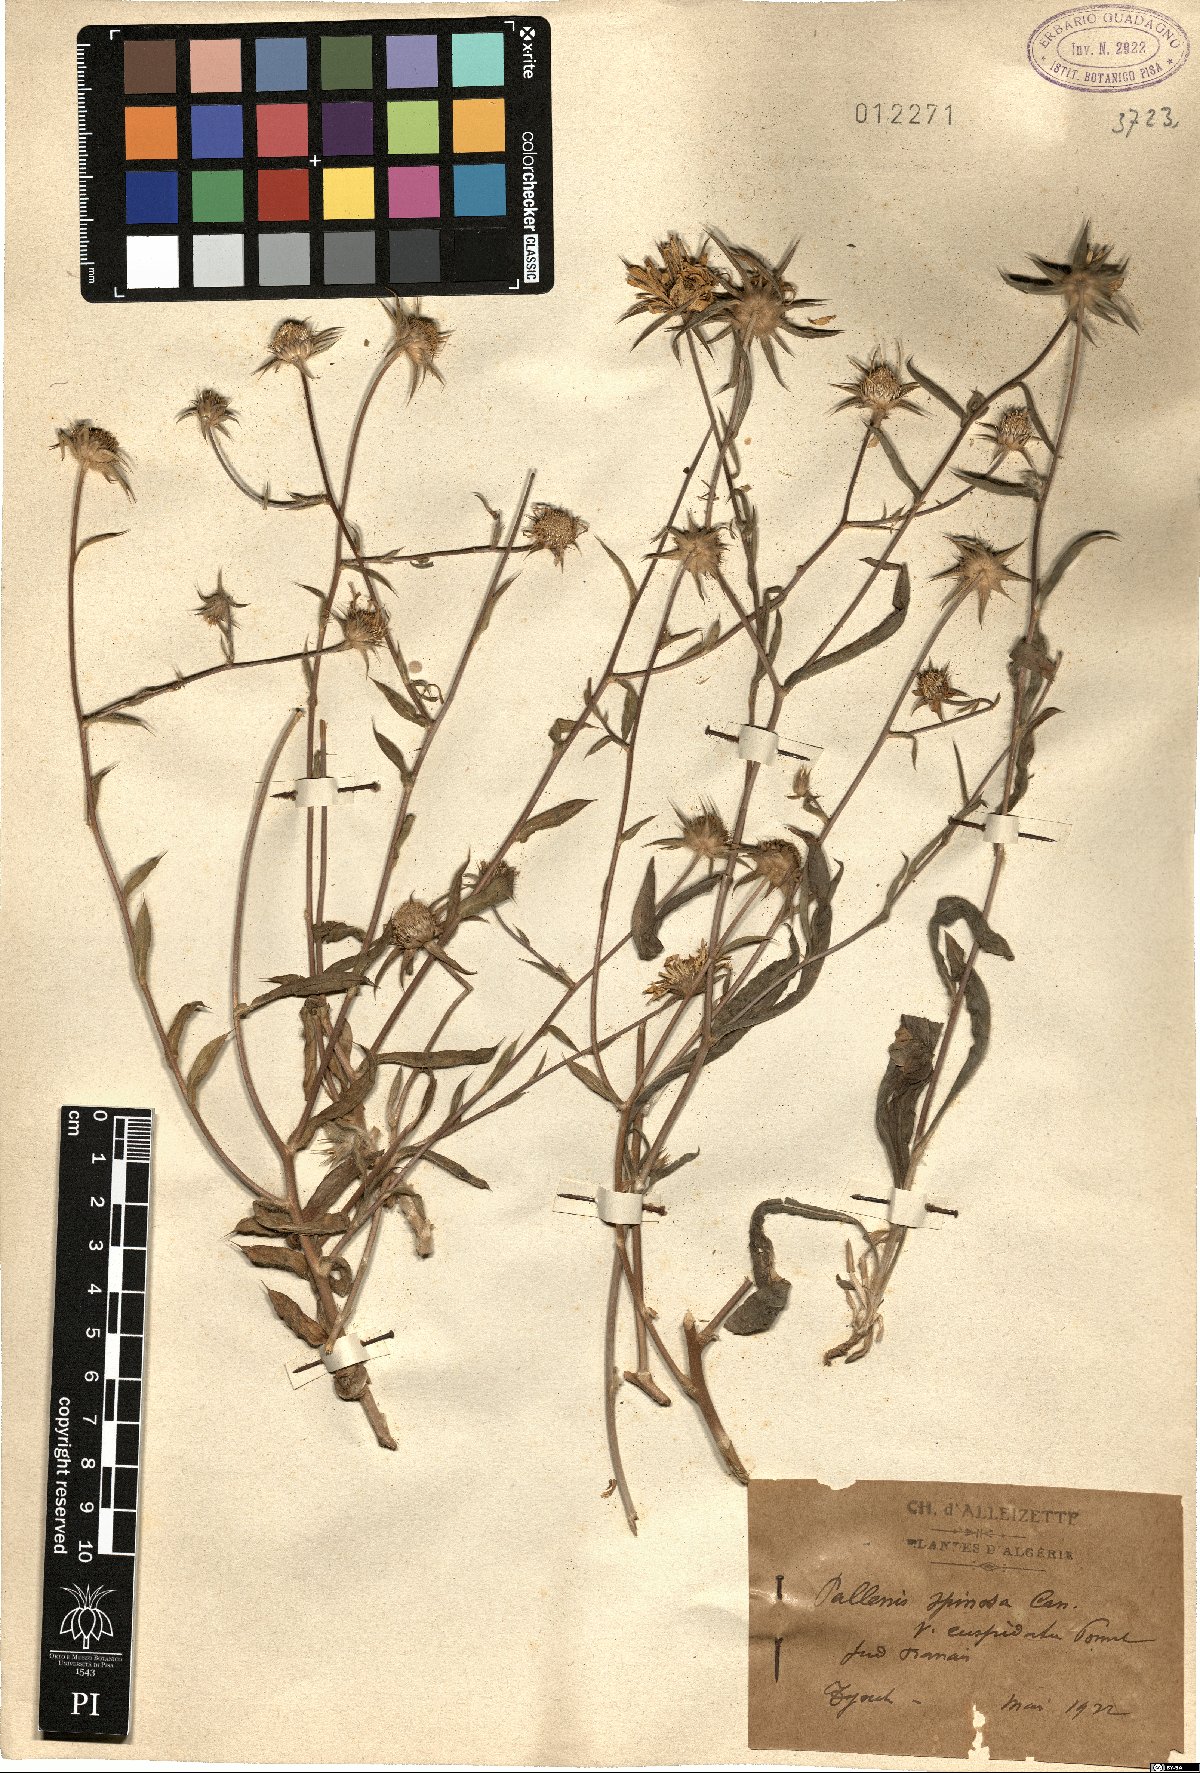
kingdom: Plantae
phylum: Tracheophyta
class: Magnoliopsida
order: Asterales
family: Asteraceae
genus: Pallenis
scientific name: Pallenis spinosa
